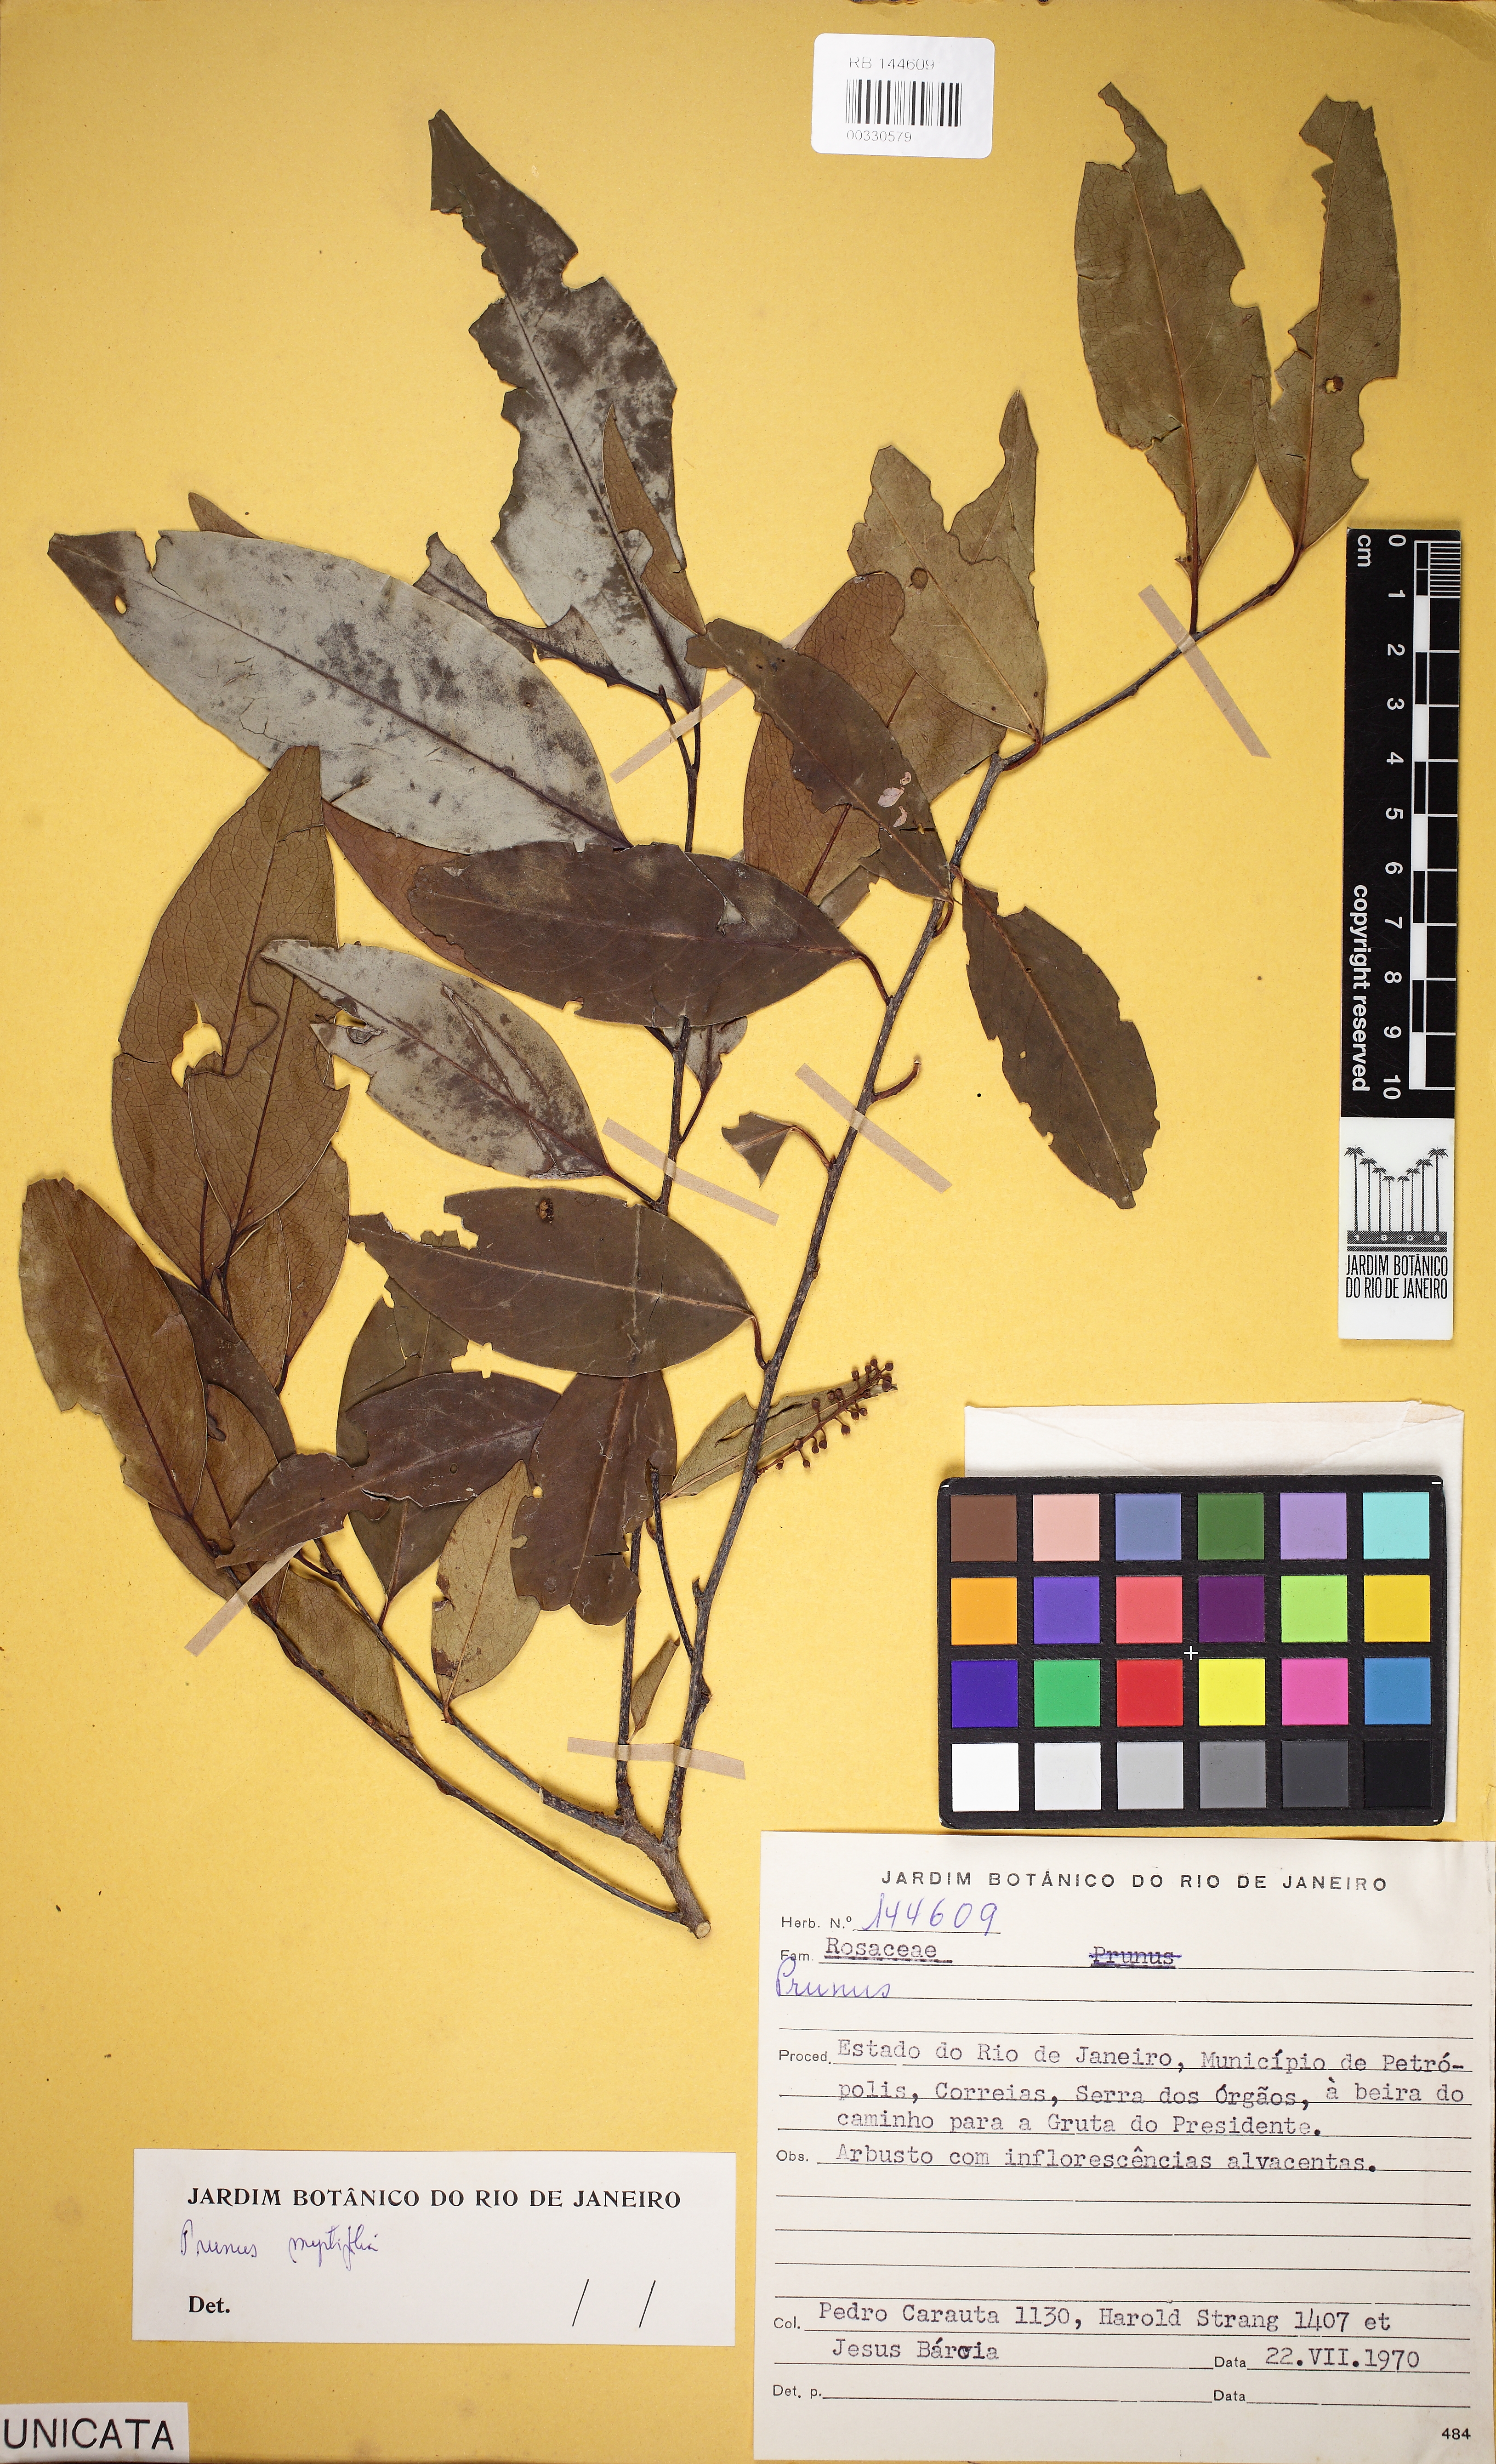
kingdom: Plantae
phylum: Tracheophyta
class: Magnoliopsida
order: Rosales
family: Rosaceae
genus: Prunus
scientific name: Prunus myrtifolia
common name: West indies cherry
